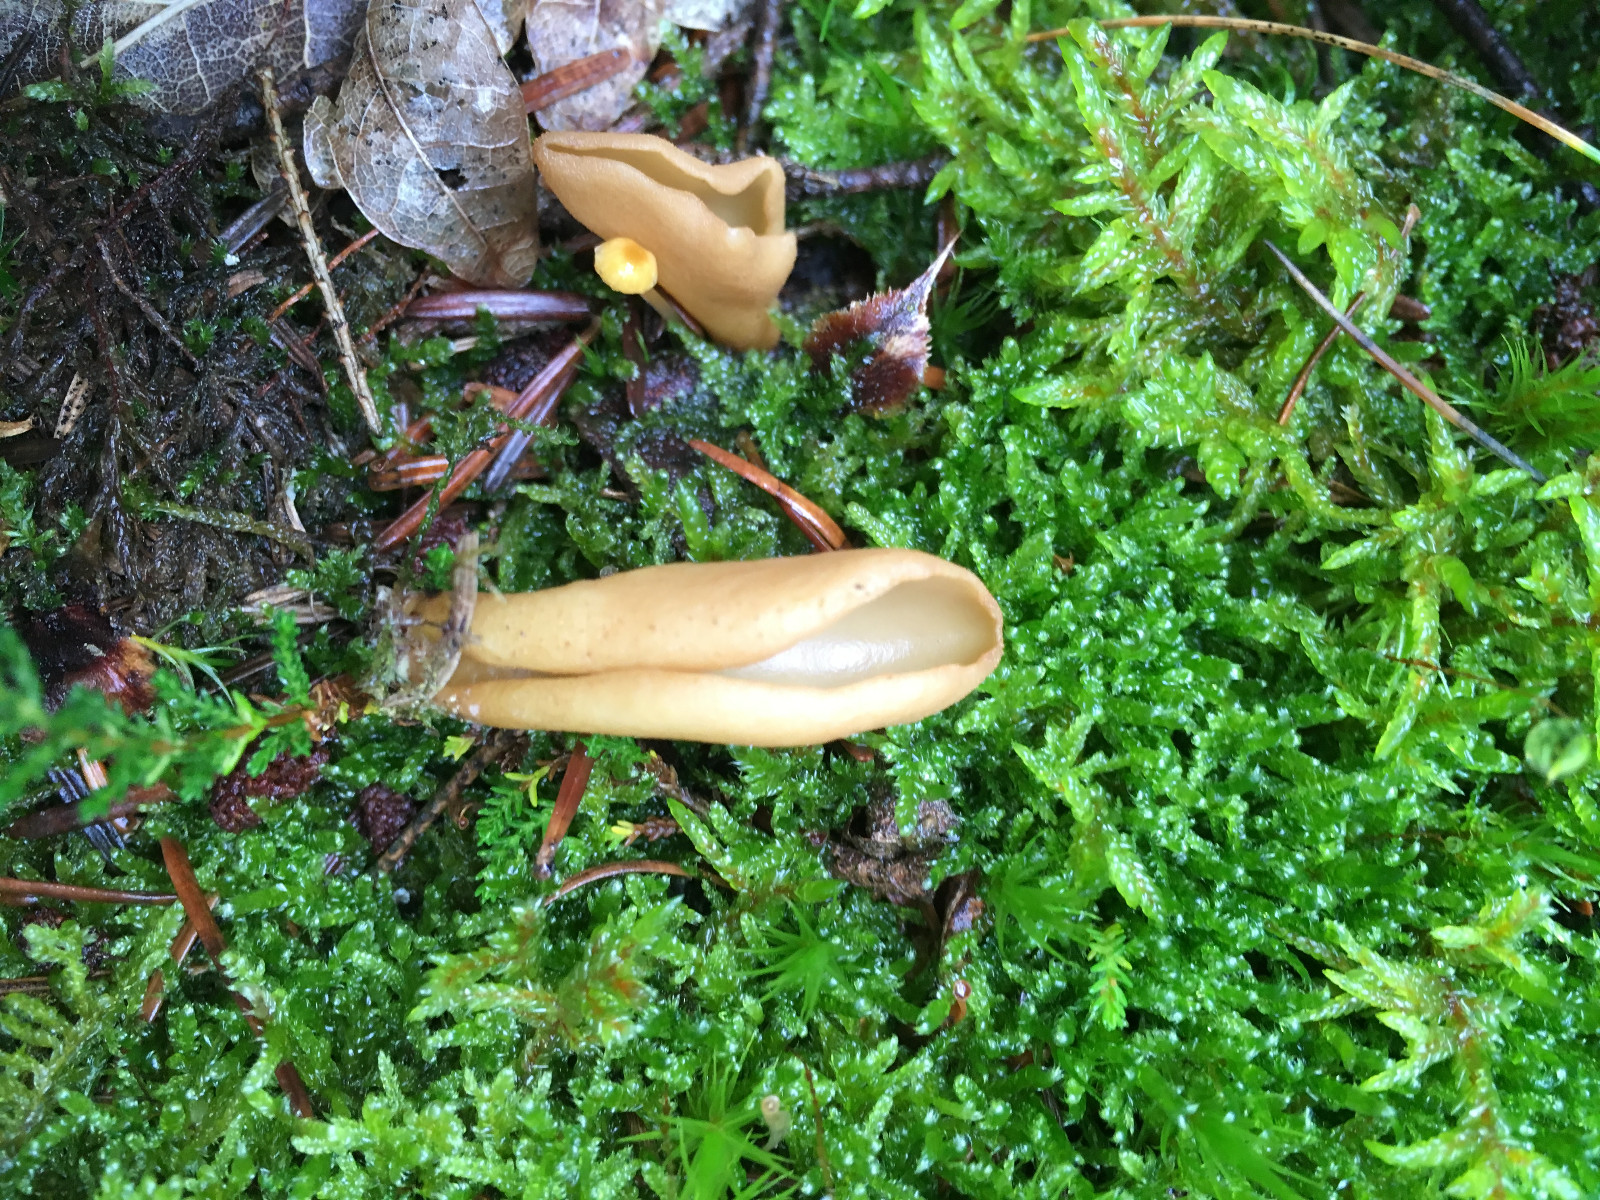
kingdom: Fungi
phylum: Ascomycota
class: Pezizomycetes
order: Pezizales
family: Otideaceae
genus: Otidea
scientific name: Otidea
